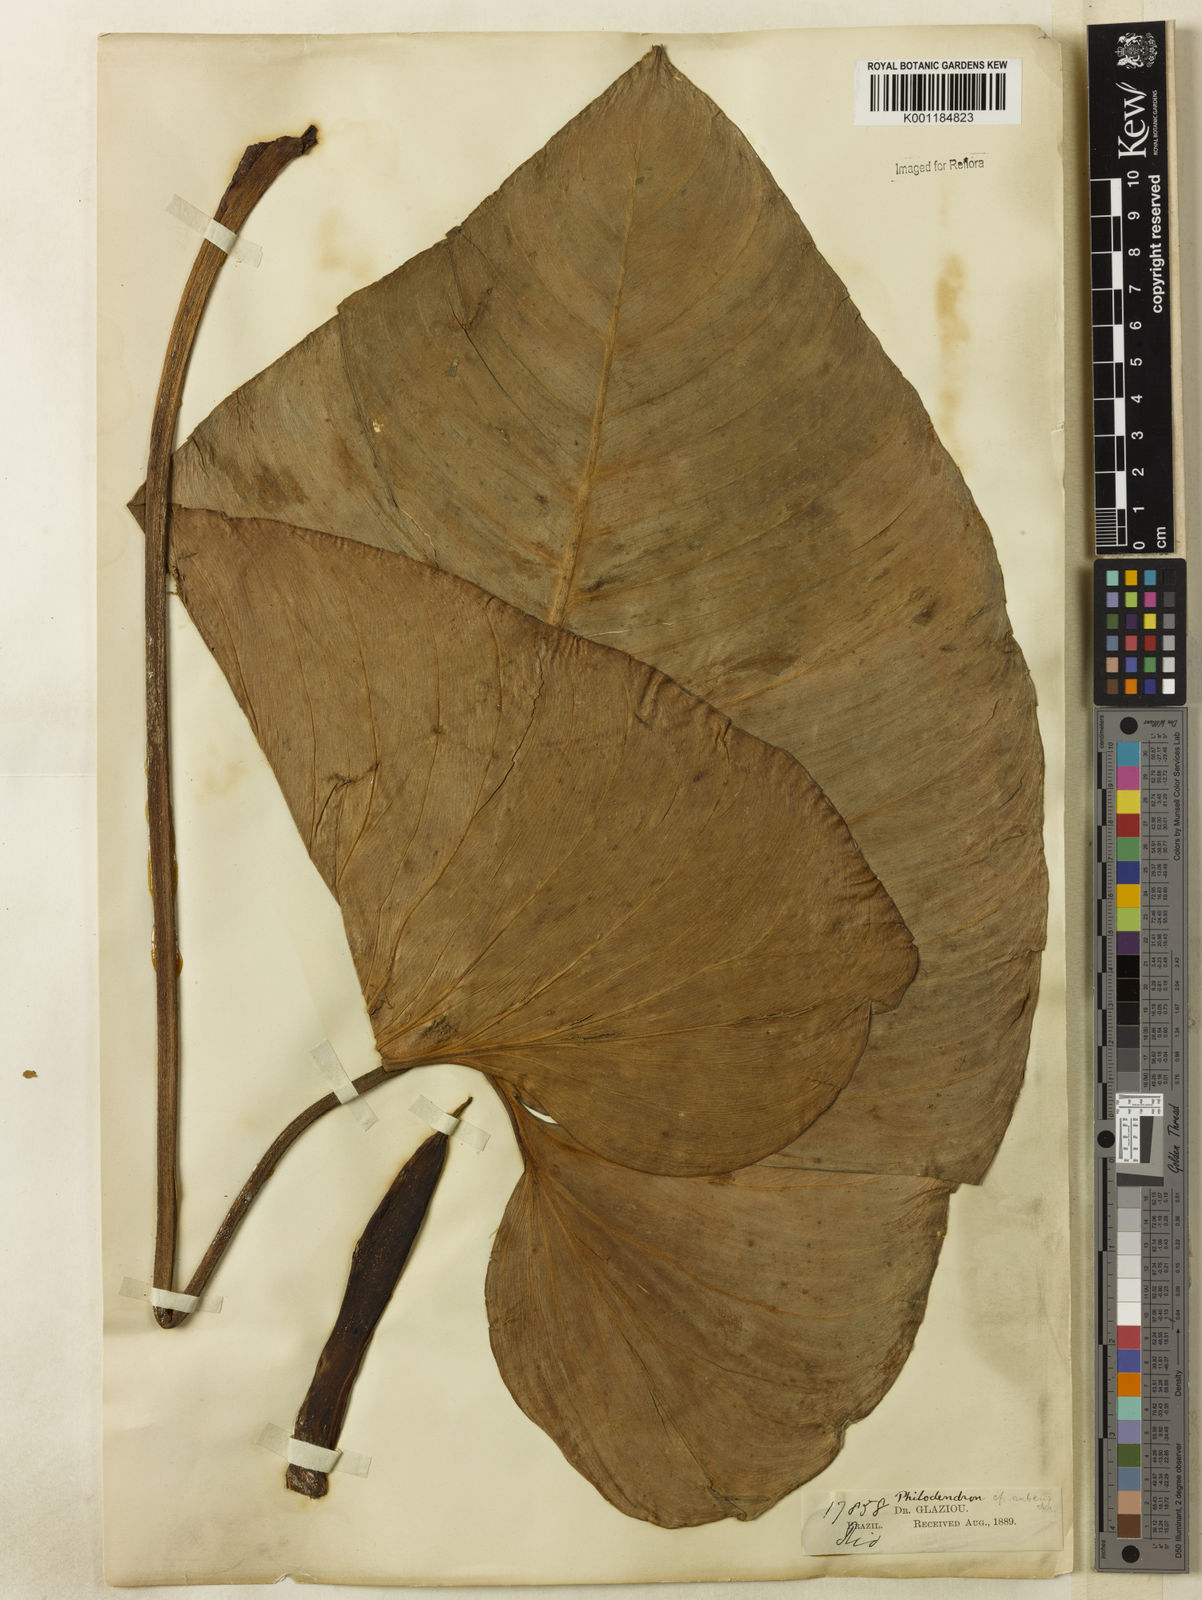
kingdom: Plantae
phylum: Tracheophyta
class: Liliopsida
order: Alismatales
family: Araceae
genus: Philodendron
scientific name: Philodendron ornatum
